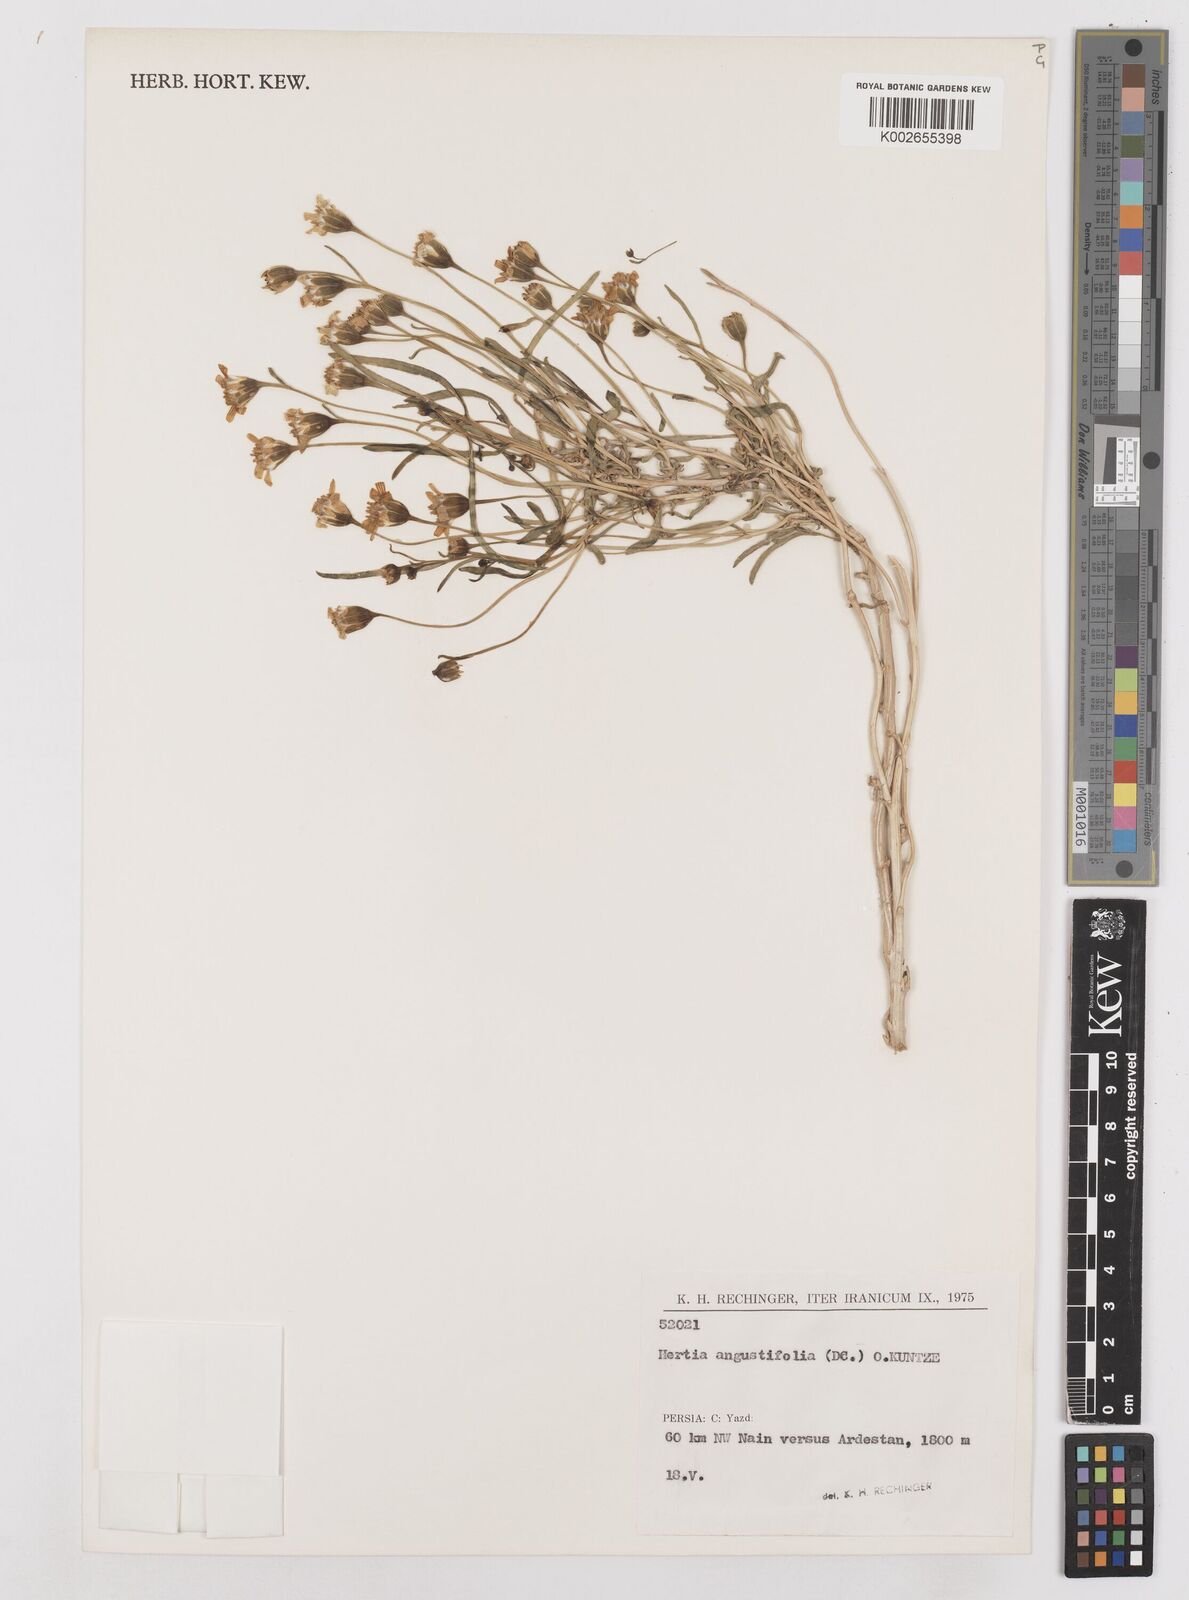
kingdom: Plantae
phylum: Tracheophyta
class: Magnoliopsida
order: Asterales
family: Asteraceae
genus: Hertia
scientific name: Hertia angustifolia
